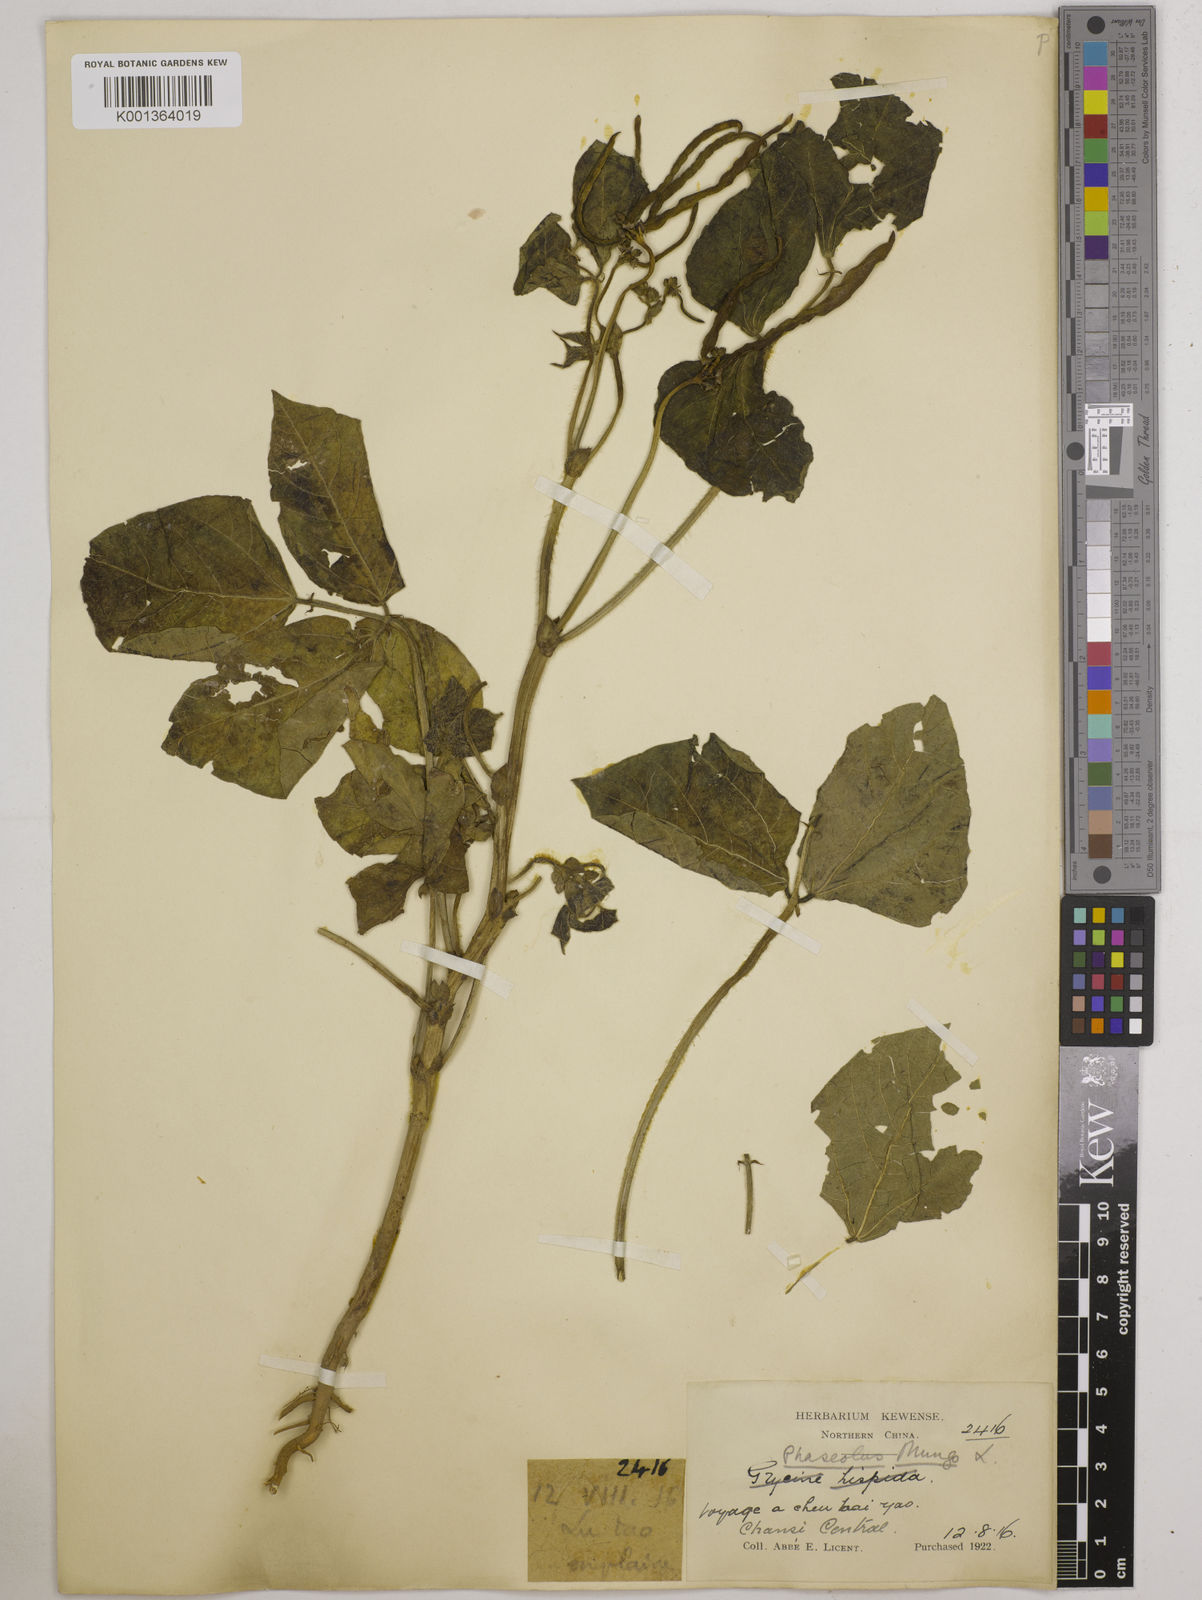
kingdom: Plantae
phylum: Tracheophyta
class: Magnoliopsida
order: Fabales
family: Fabaceae
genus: Vigna
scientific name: Vigna radiata
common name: Mung-bean
